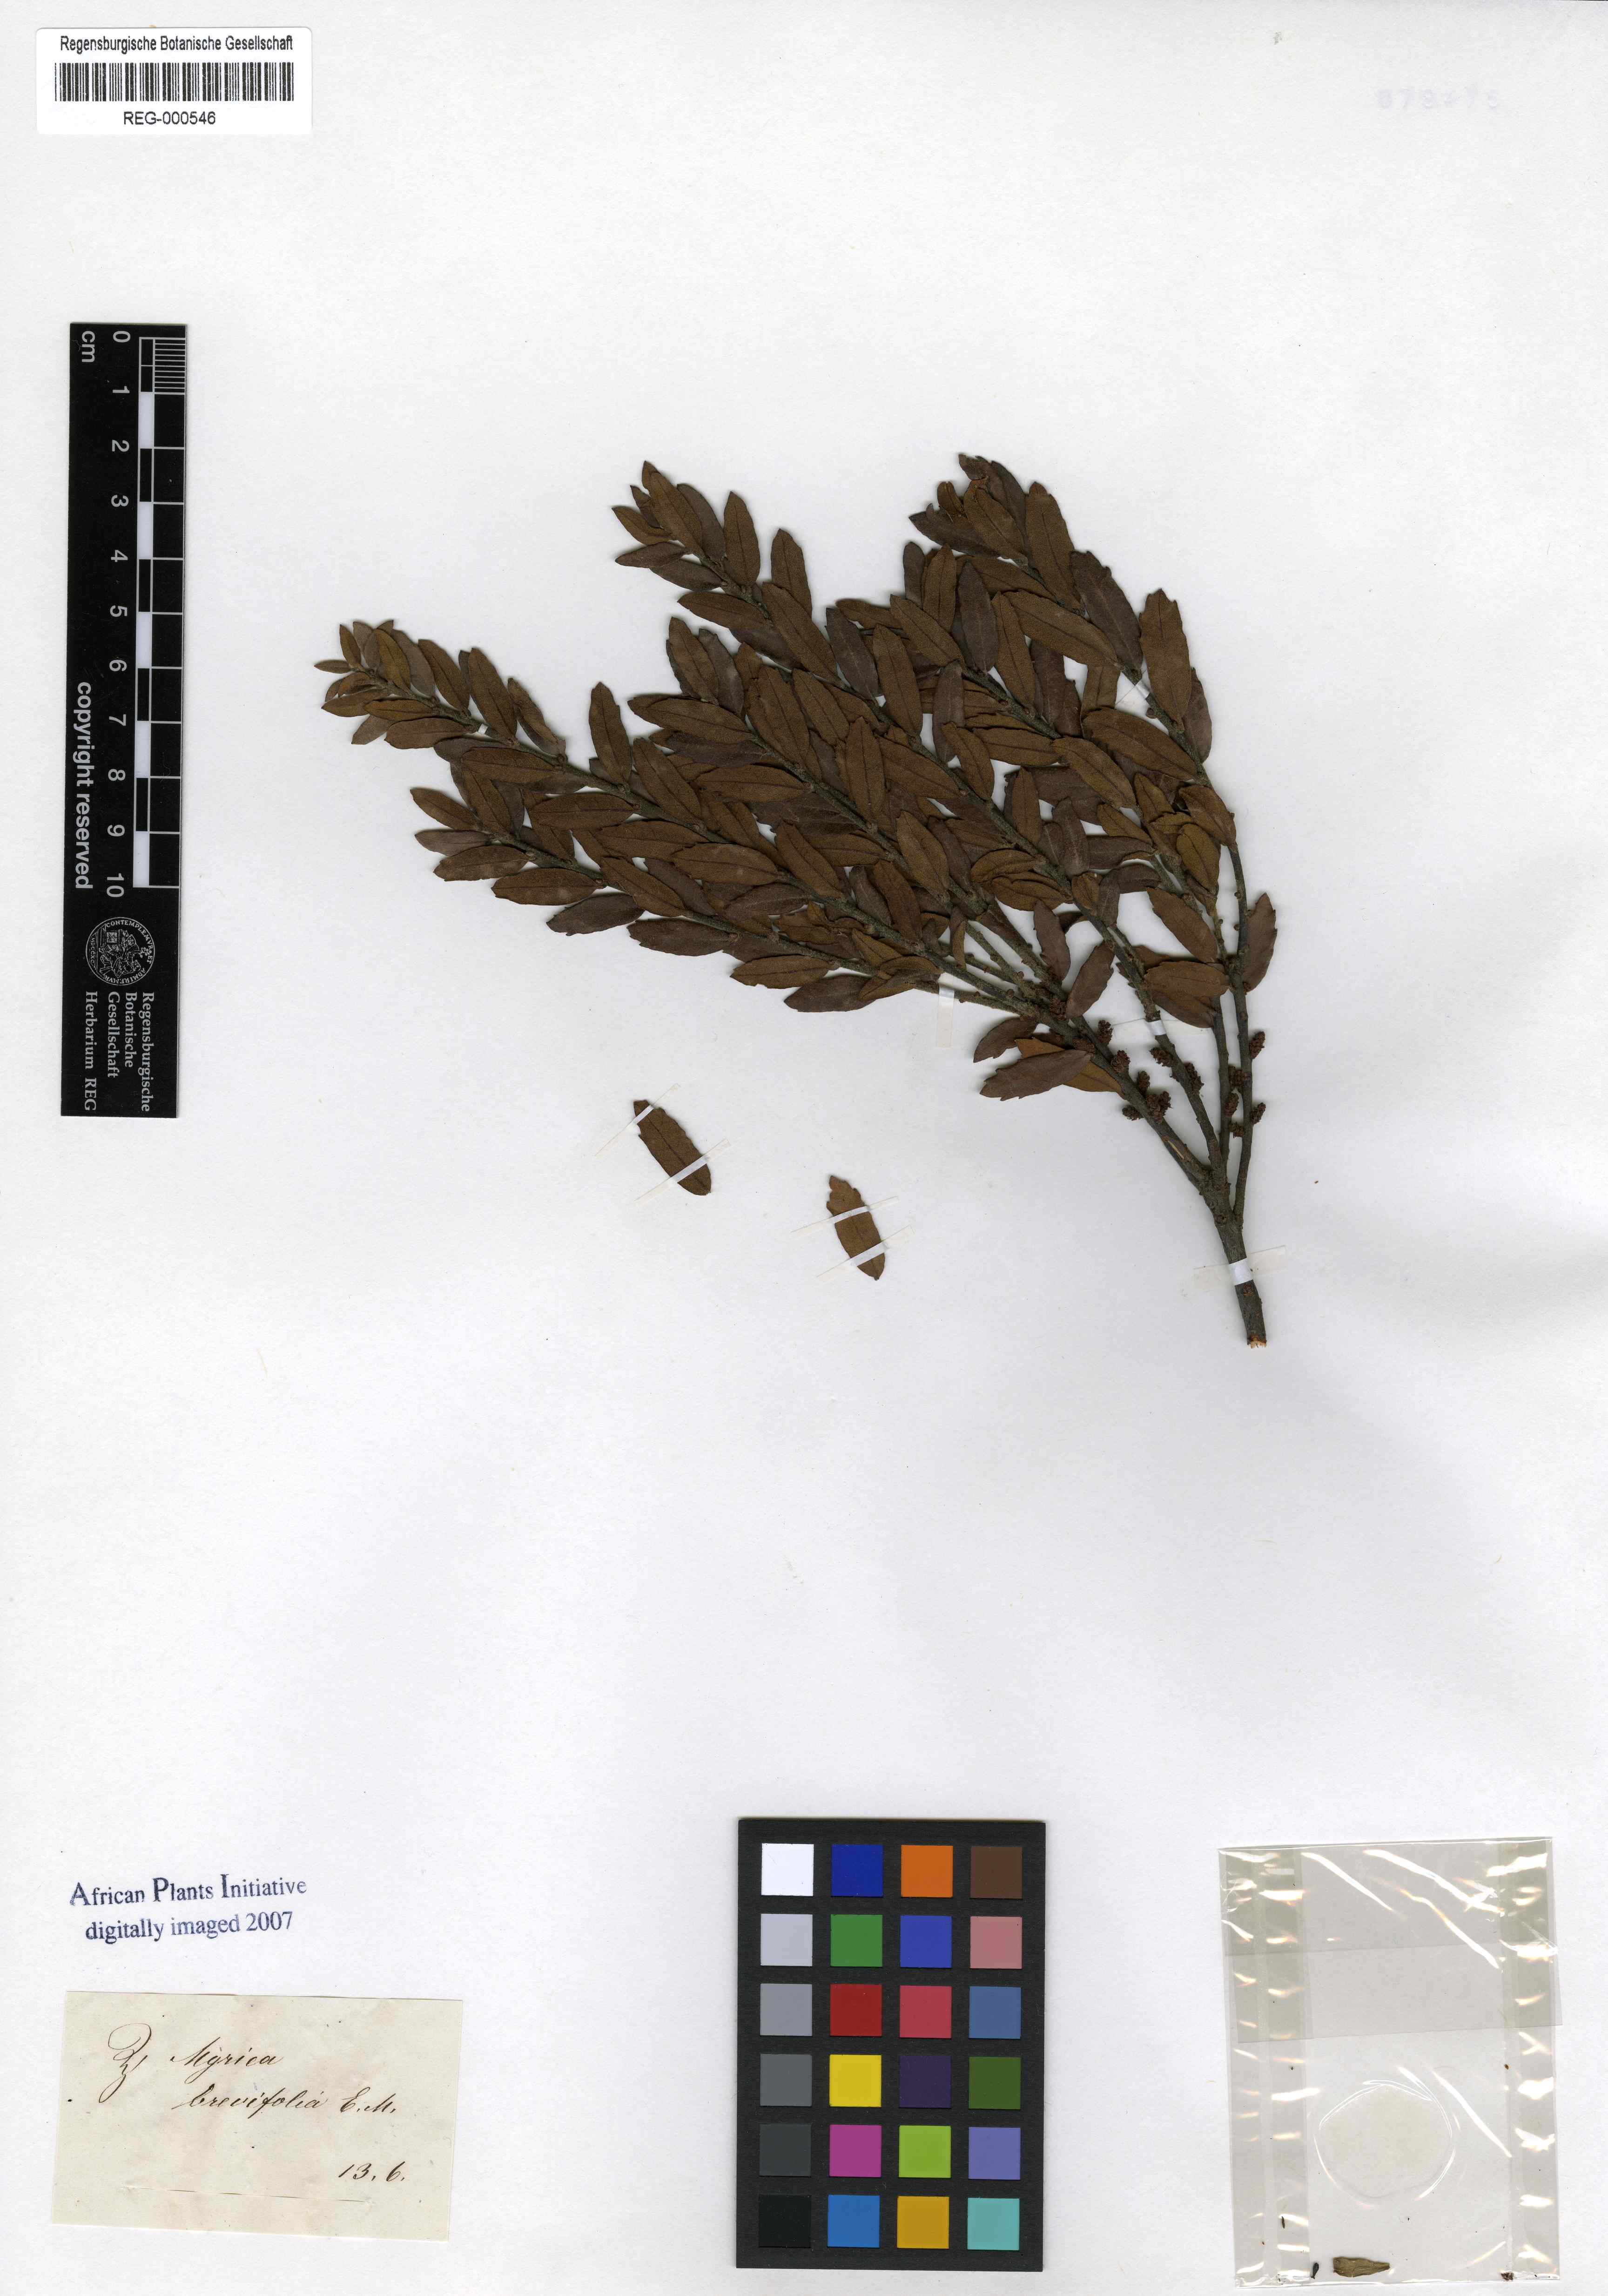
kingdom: Plantae
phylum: Tracheophyta
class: Magnoliopsida
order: Fagales
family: Myricaceae
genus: Morella
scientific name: Morella brevifolia
